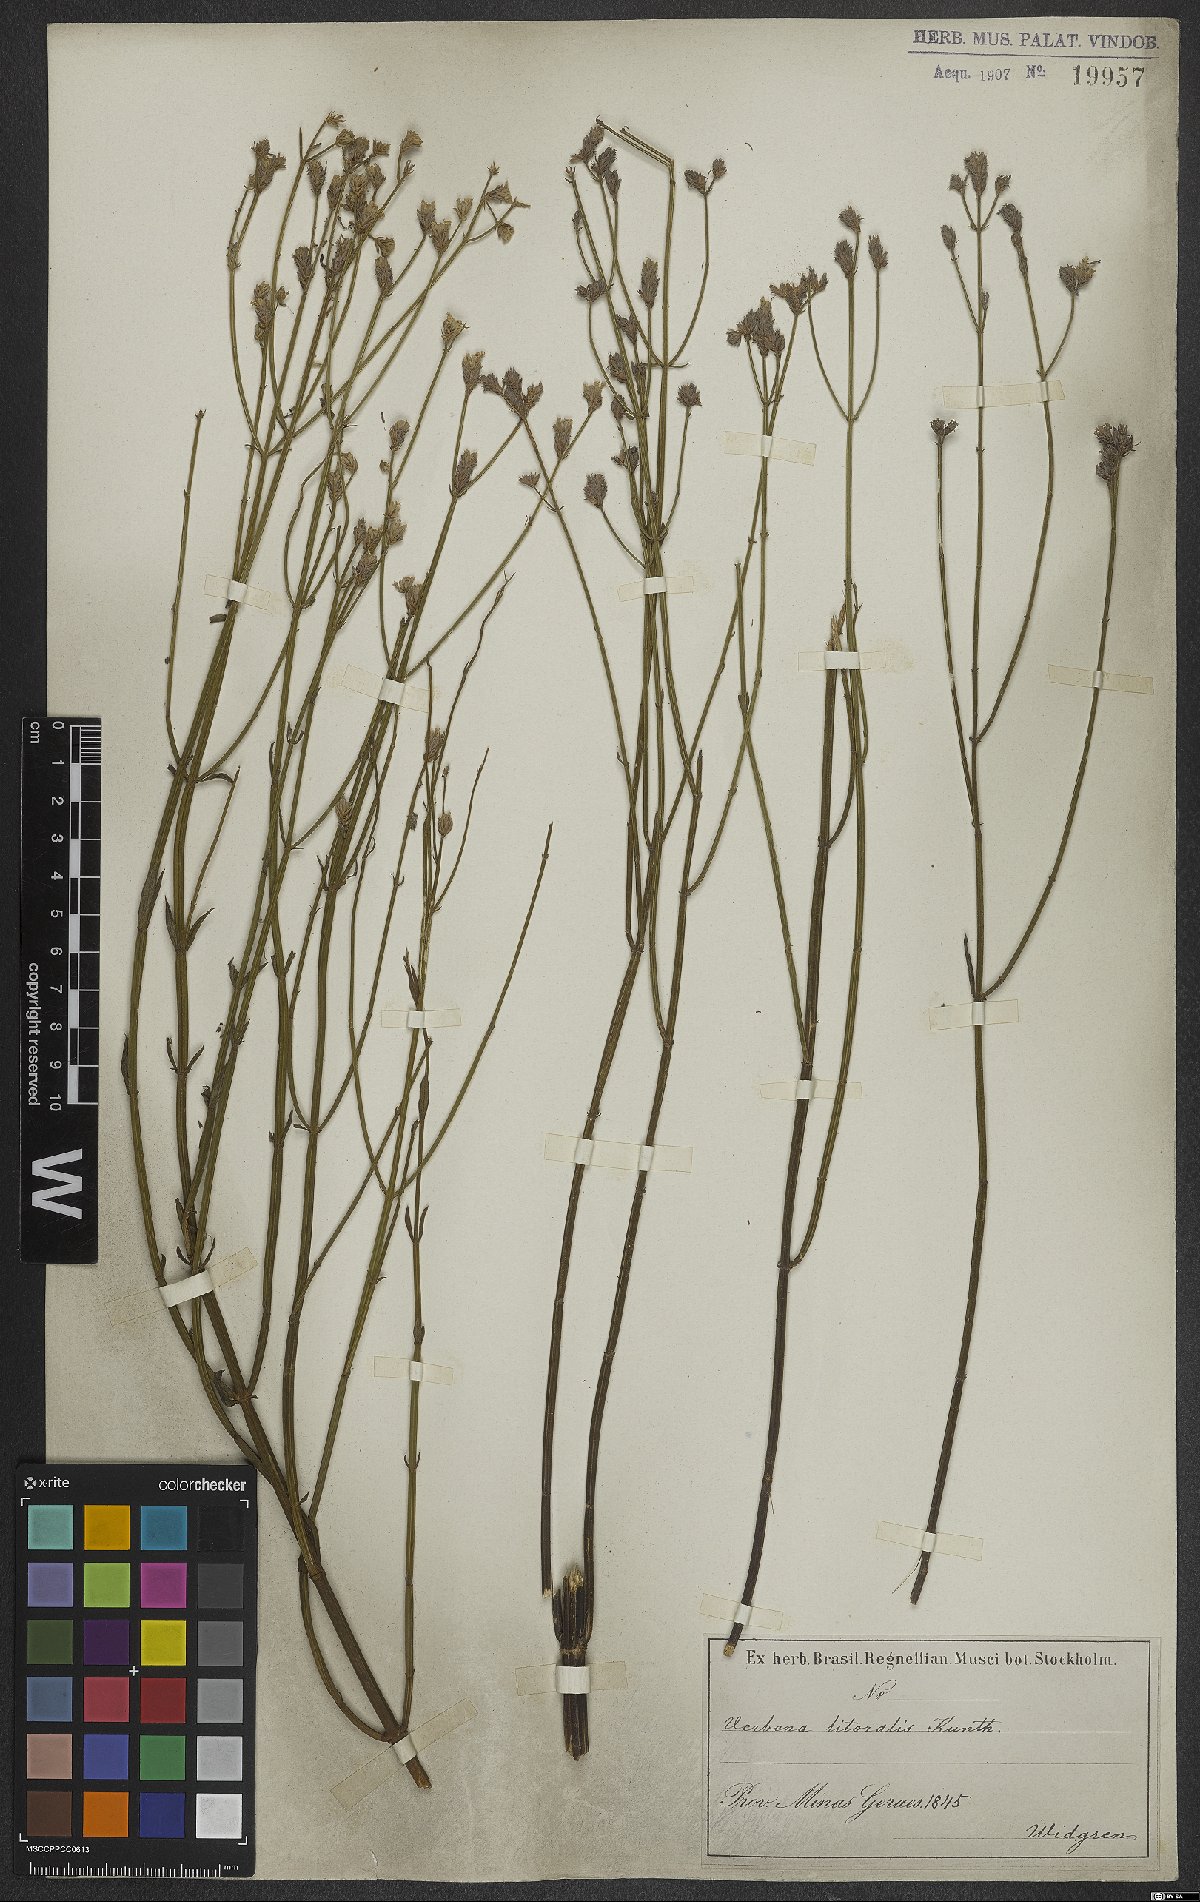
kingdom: Plantae
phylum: Tracheophyta
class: Magnoliopsida
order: Lamiales
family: Verbenaceae
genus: Verbena
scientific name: Verbena litoralis
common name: Seashore vervain
